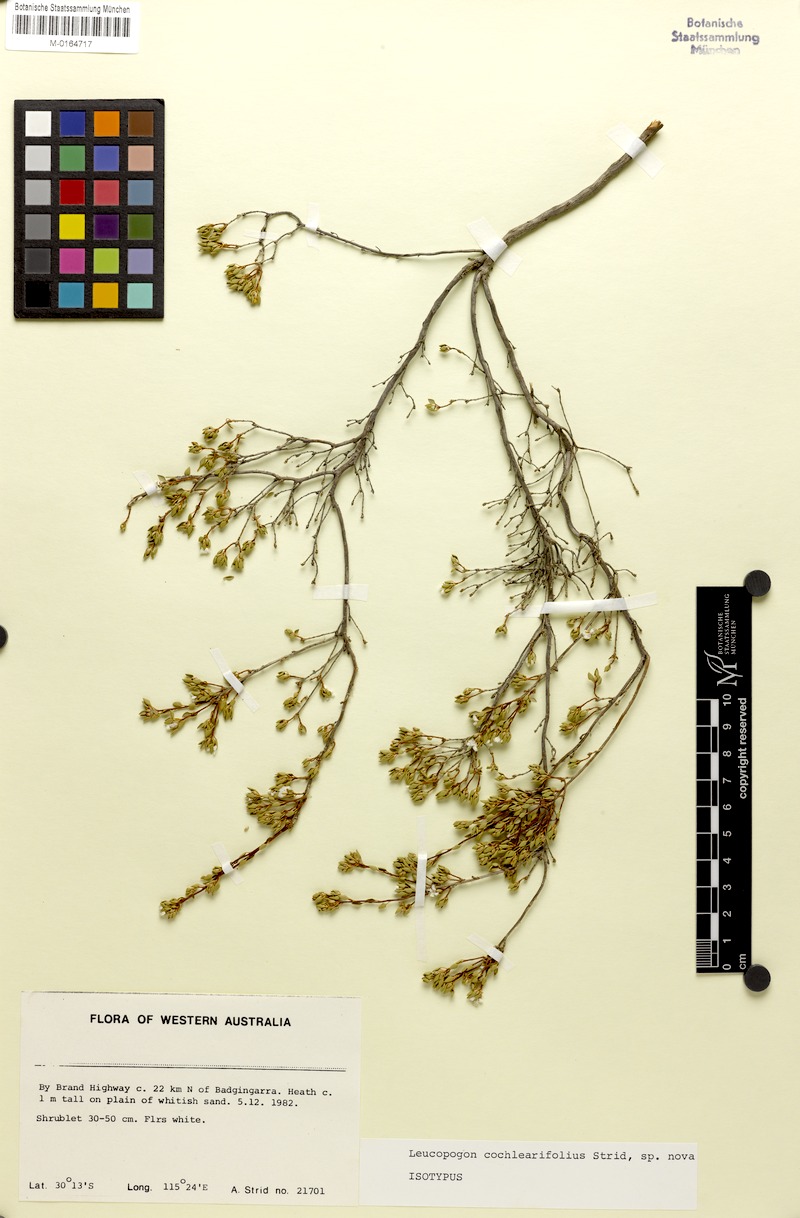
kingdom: Plantae
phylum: Tracheophyta
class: Magnoliopsida
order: Ericales
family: Ericaceae
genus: Leucopogon
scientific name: Leucopogon cochlearifolius
